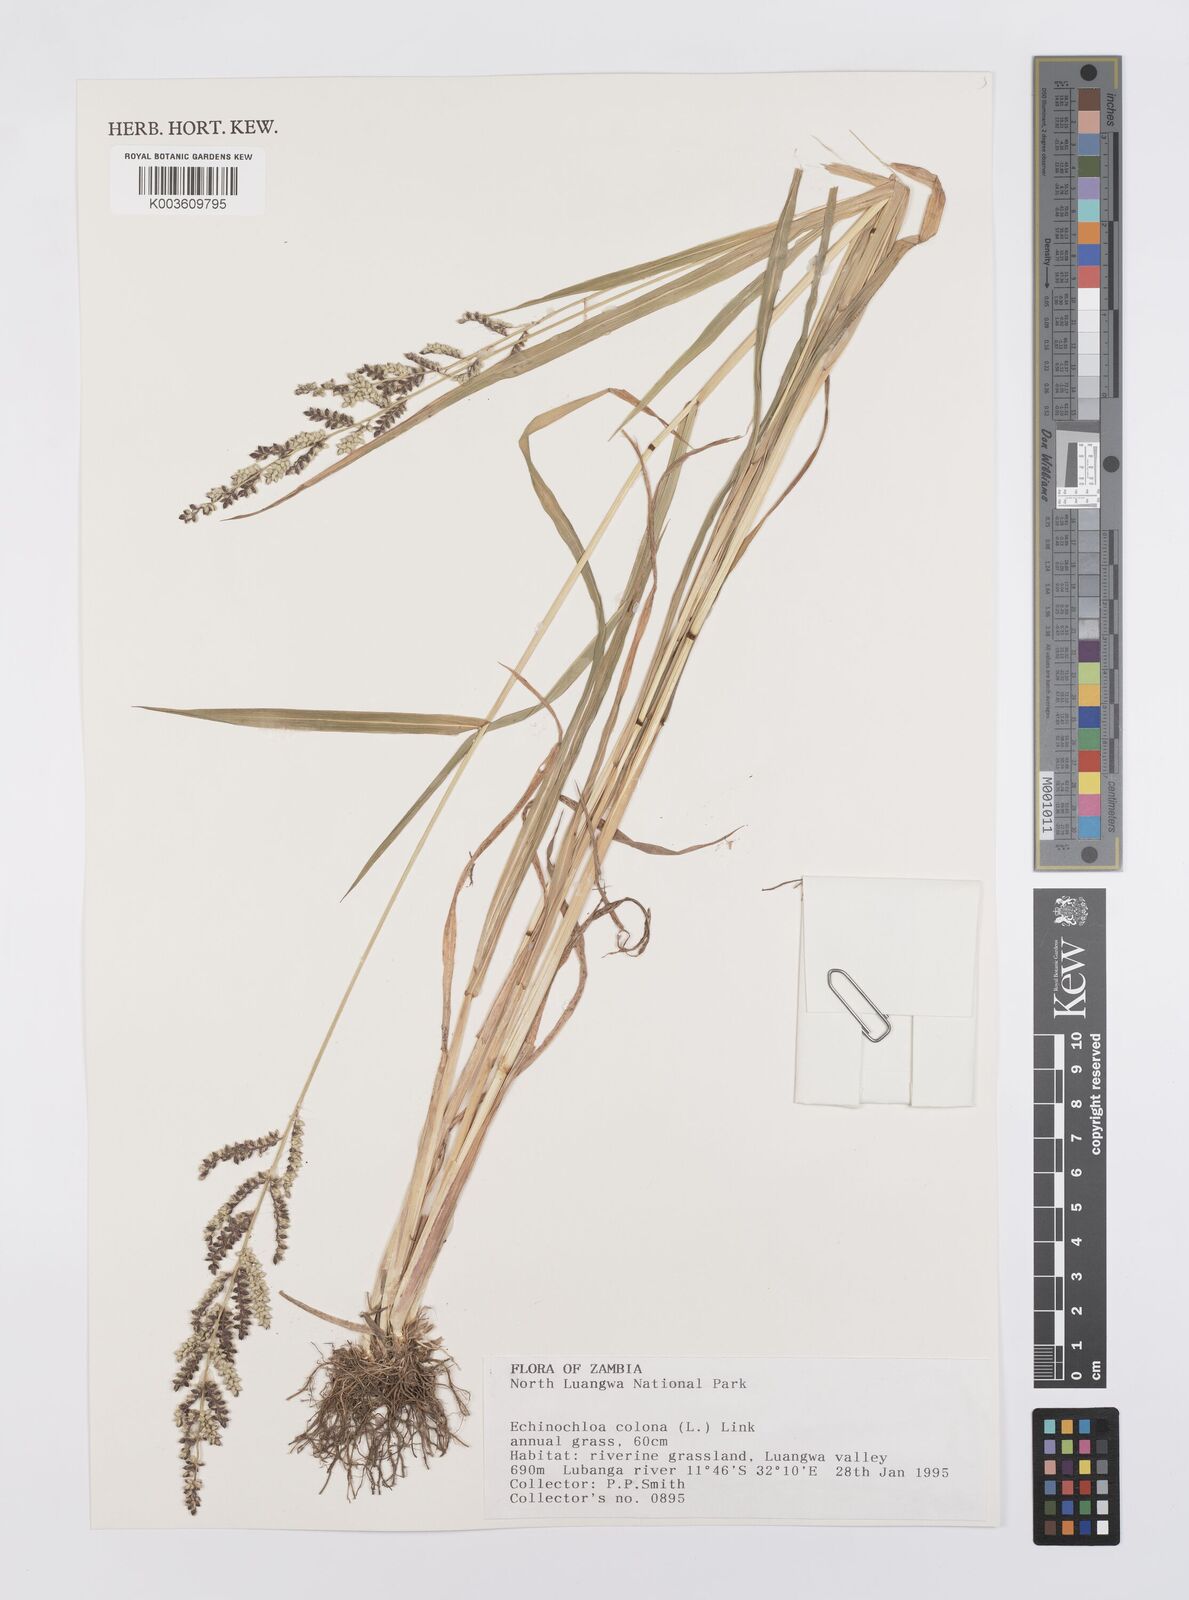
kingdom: Plantae
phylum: Tracheophyta
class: Liliopsida
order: Poales
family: Poaceae
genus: Echinochloa
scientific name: Echinochloa colonum
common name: Jungle rice
